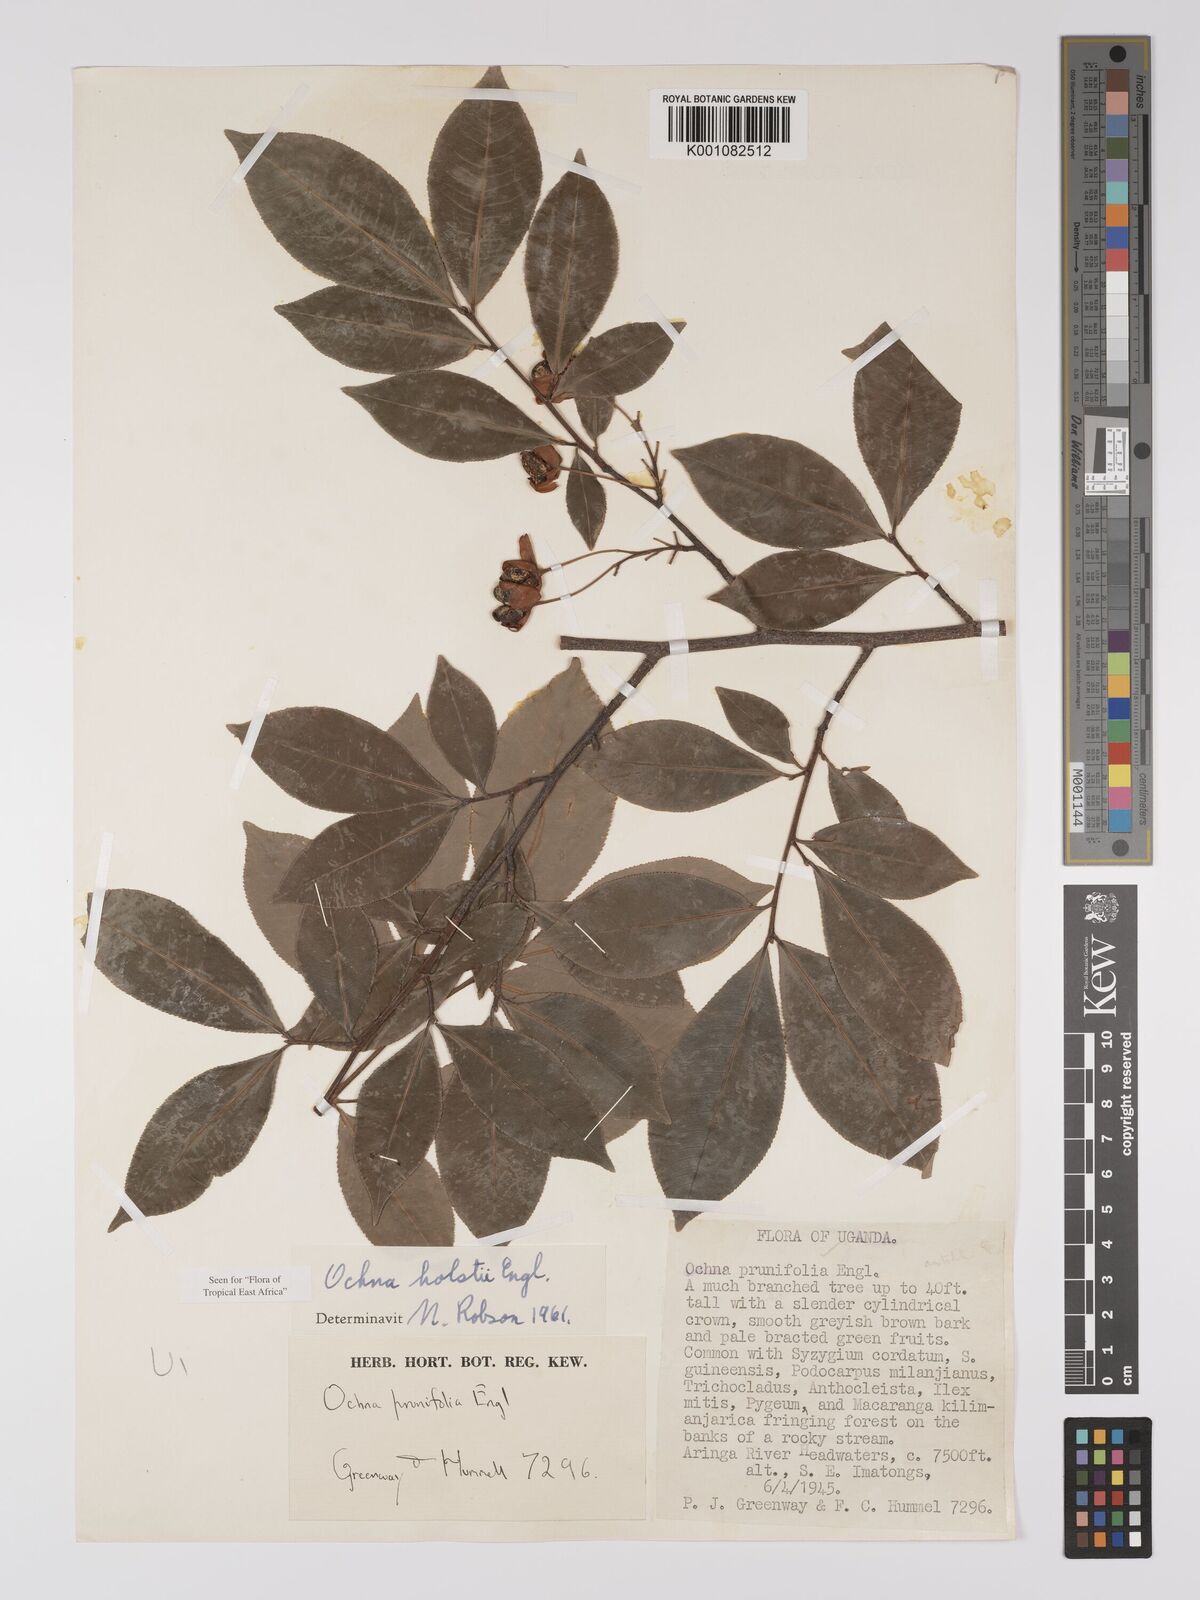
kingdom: Plantae
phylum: Tracheophyta
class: Magnoliopsida
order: Malpighiales
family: Ochnaceae
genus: Ochna
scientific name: Ochna holstii
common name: Red ironwood
